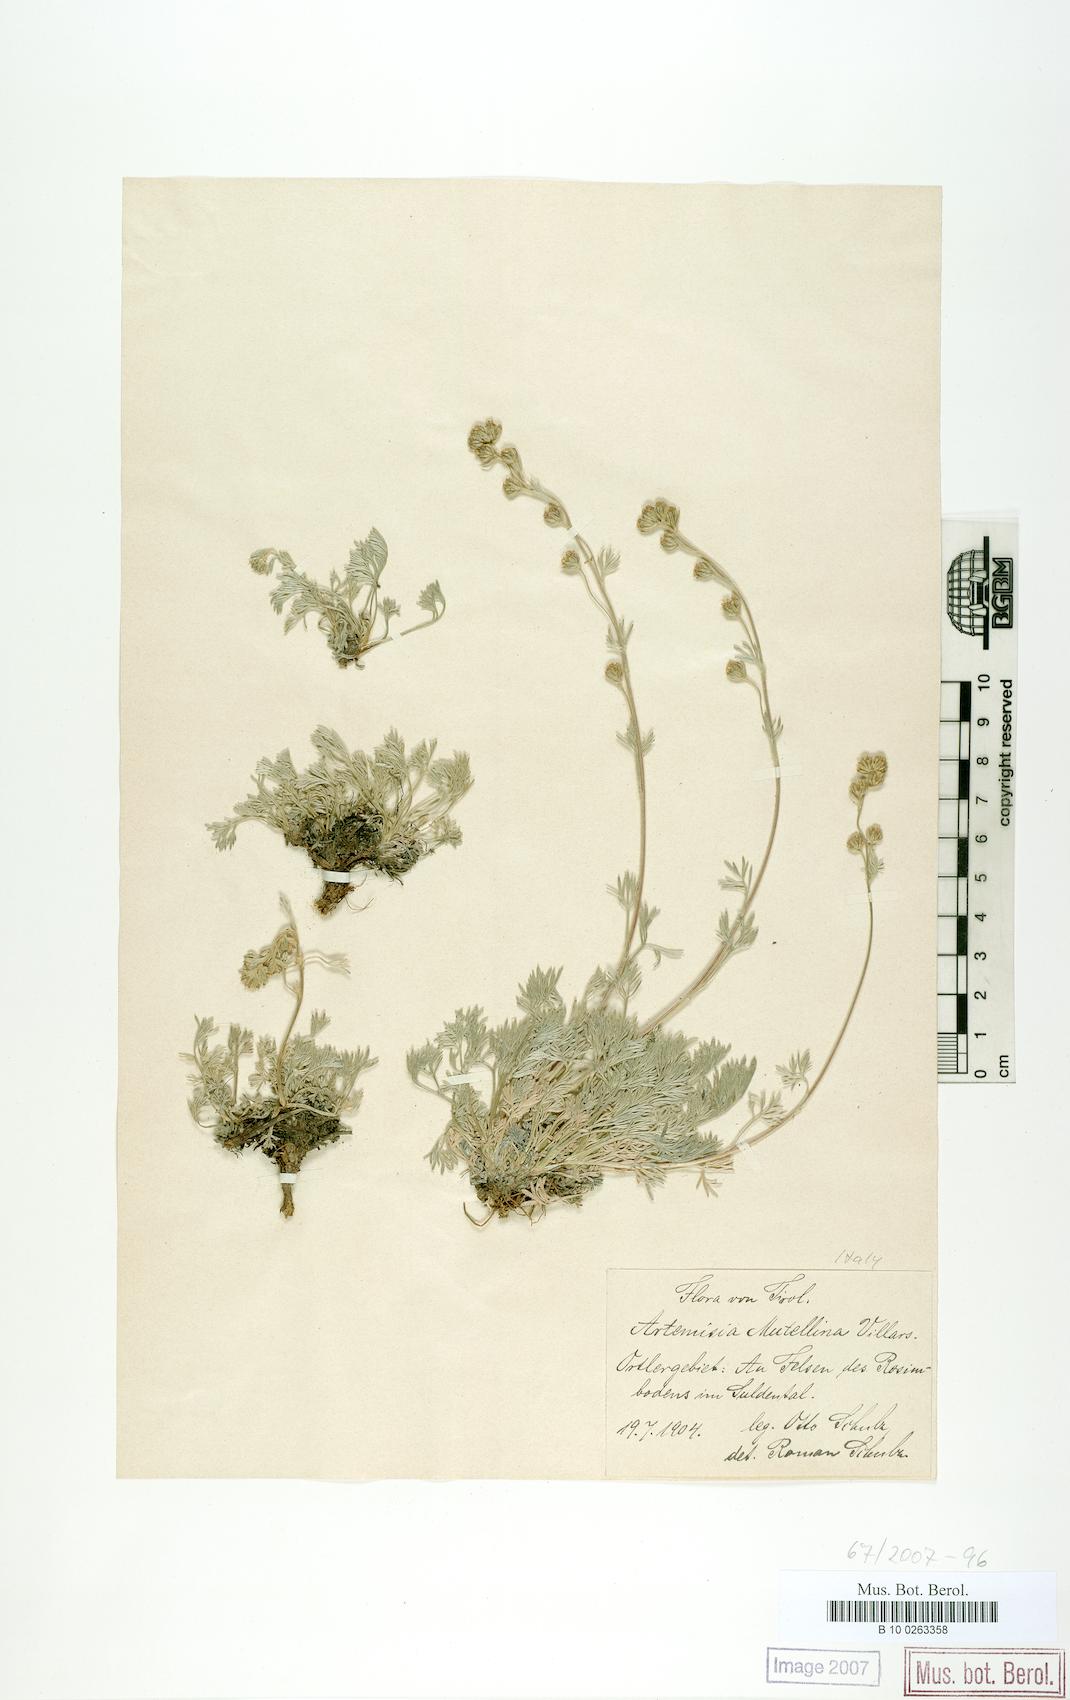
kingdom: Plantae
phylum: Tracheophyta
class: Magnoliopsida
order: Asterales
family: Asteraceae
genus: Artemisia
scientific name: Artemisia mutellina
